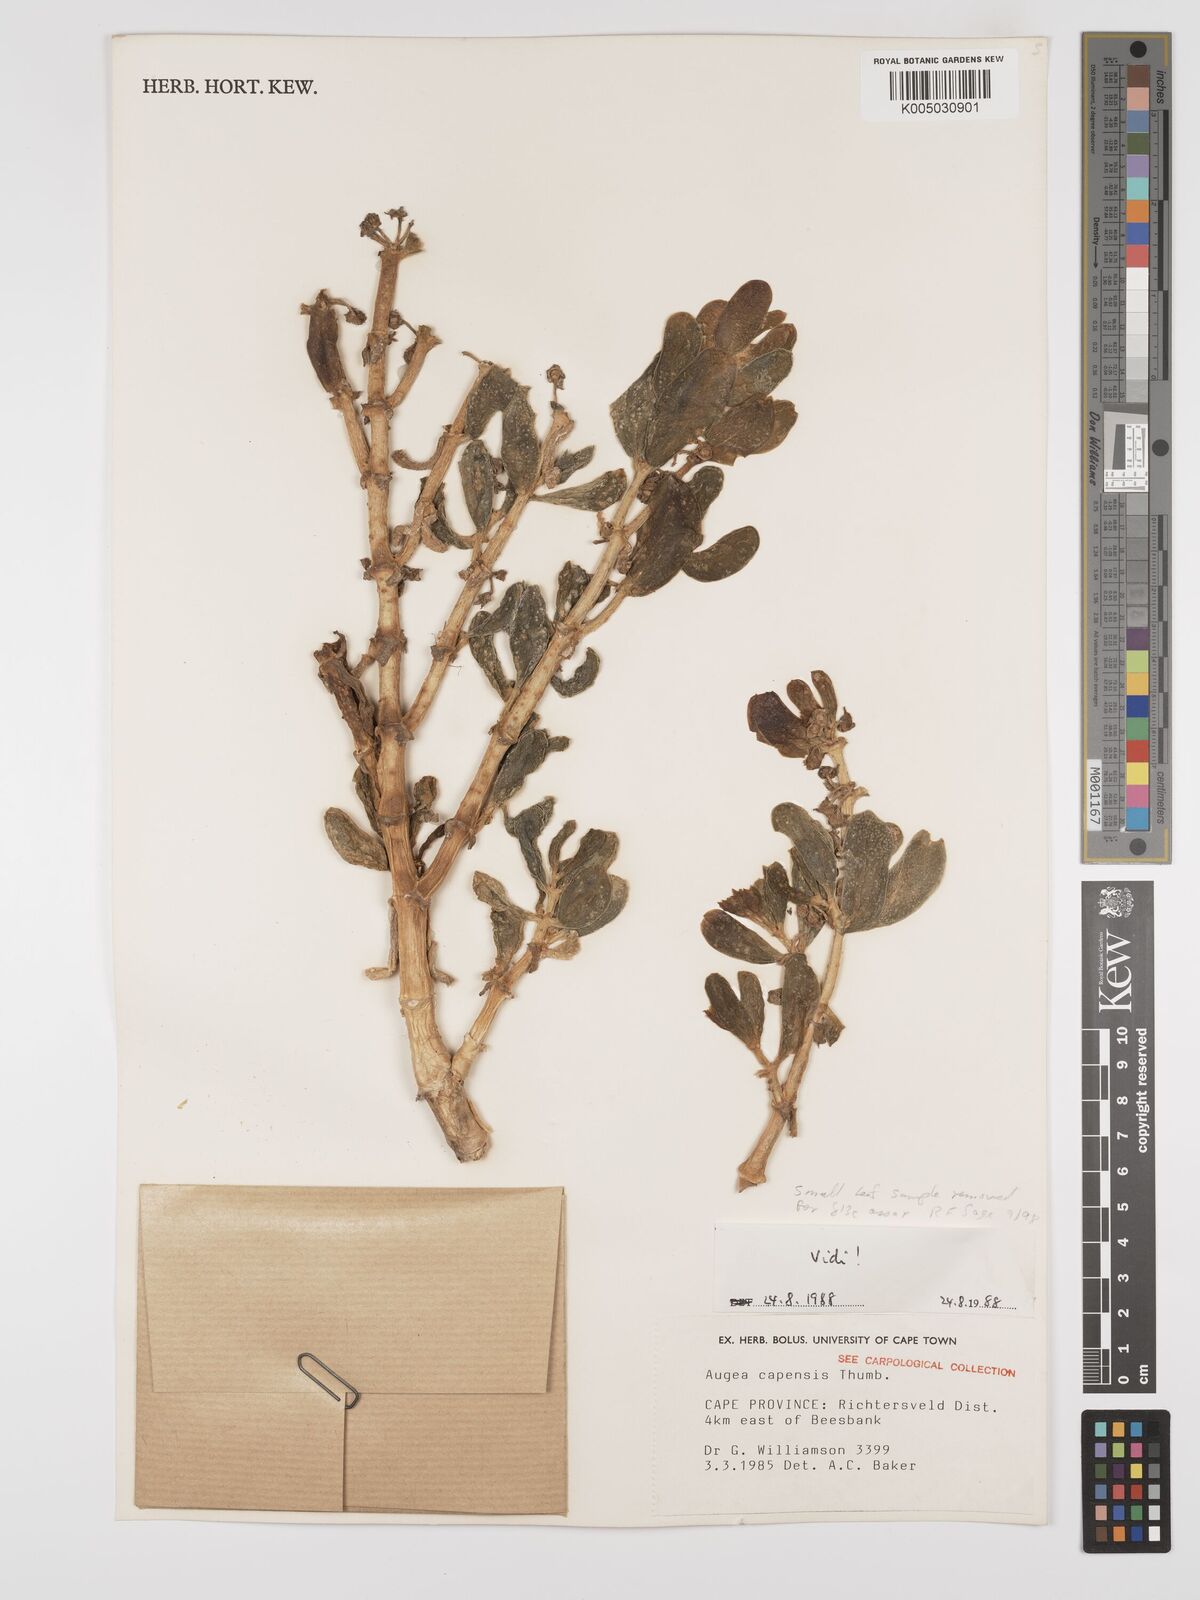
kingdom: Plantae
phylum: Tracheophyta
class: Magnoliopsida
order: Zygophyllales
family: Zygophyllaceae
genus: Augea
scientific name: Augea capensis
